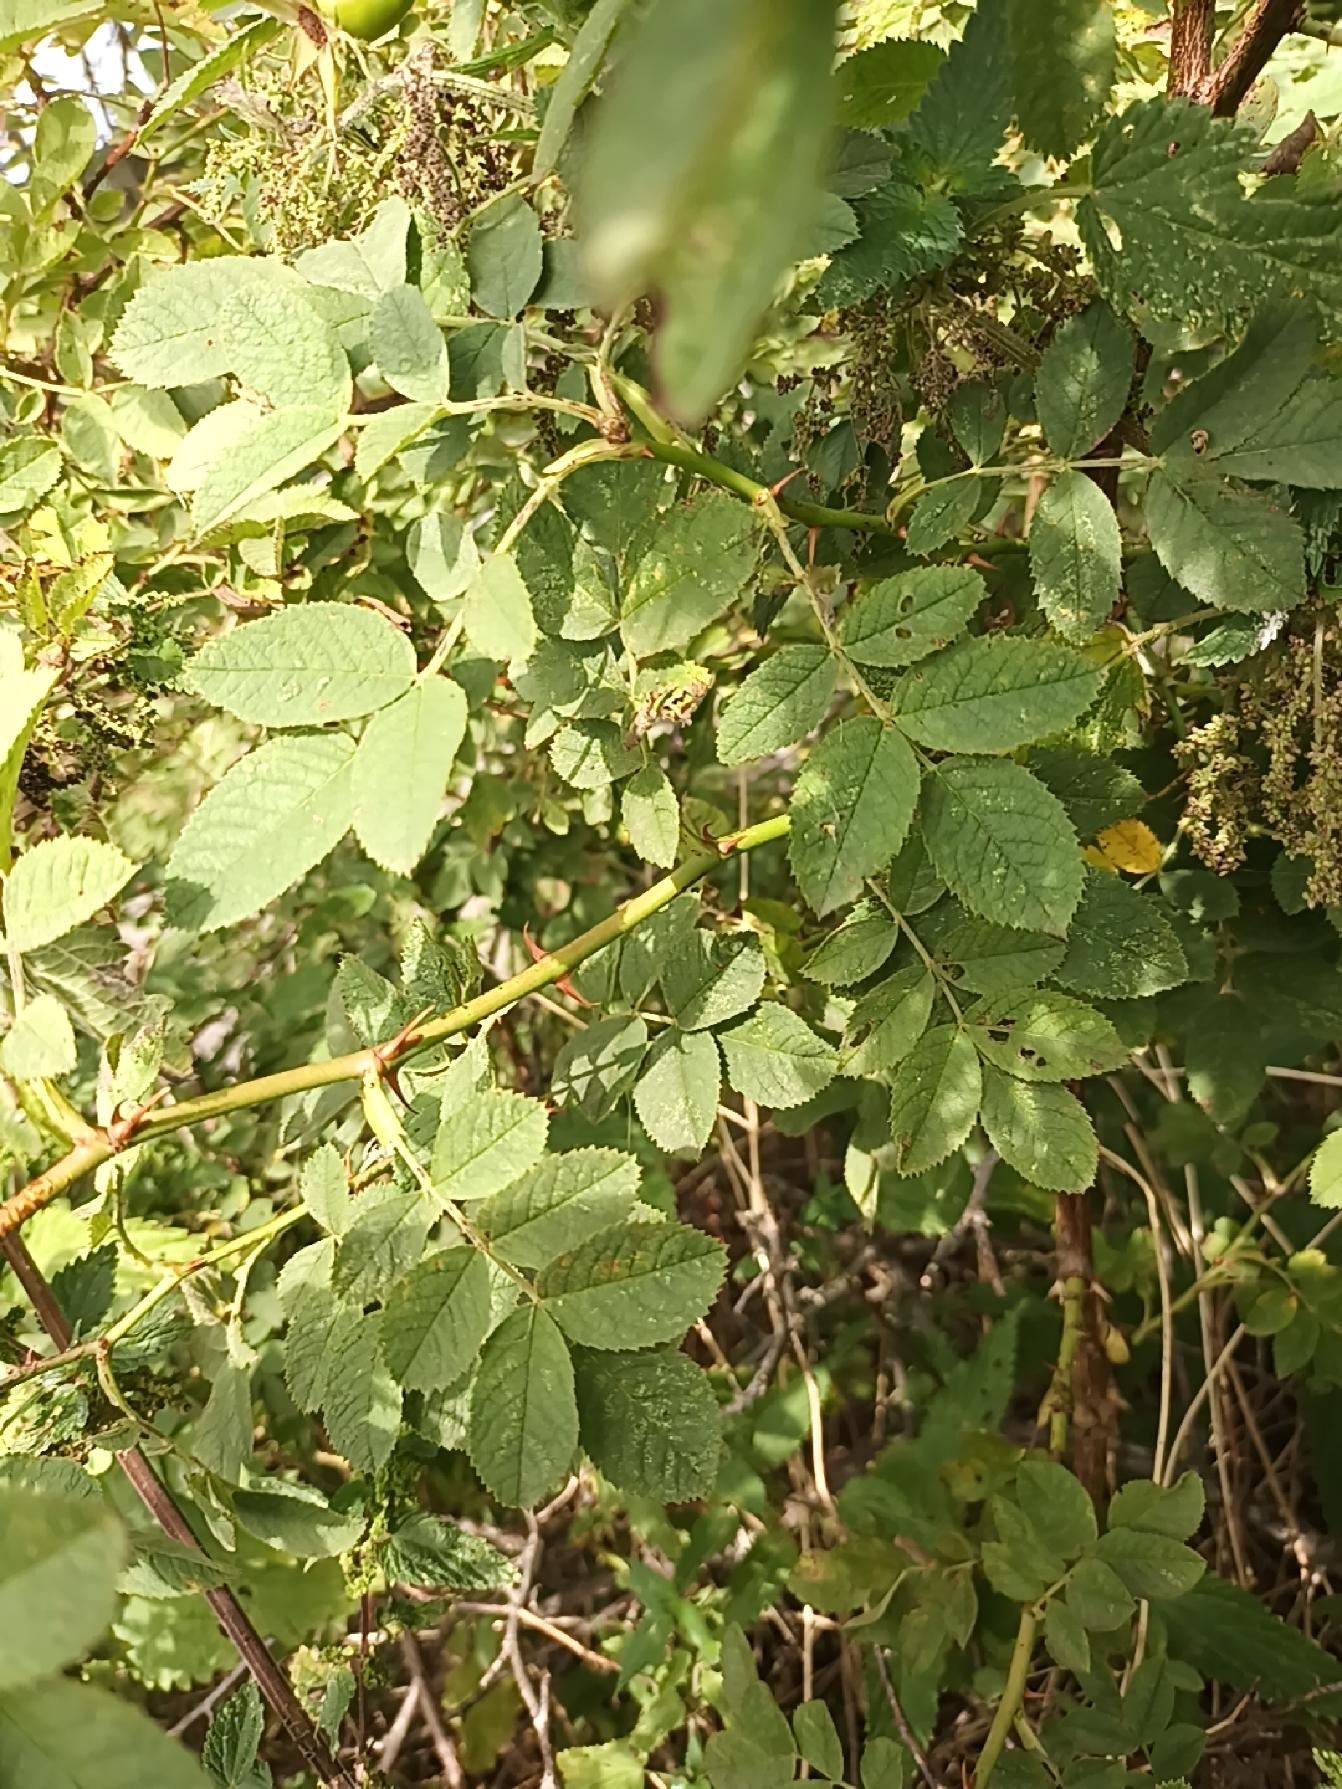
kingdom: Plantae
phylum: Tracheophyta
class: Magnoliopsida
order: Rosales
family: Rosaceae
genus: Rosa
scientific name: Rosa tomentosa
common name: Langstilket filt-rose
